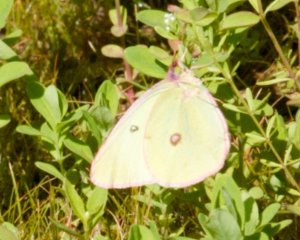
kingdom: Animalia
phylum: Arthropoda
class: Insecta
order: Lepidoptera
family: Pieridae
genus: Colias
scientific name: Colias interior
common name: Pink-edged Sulphur
